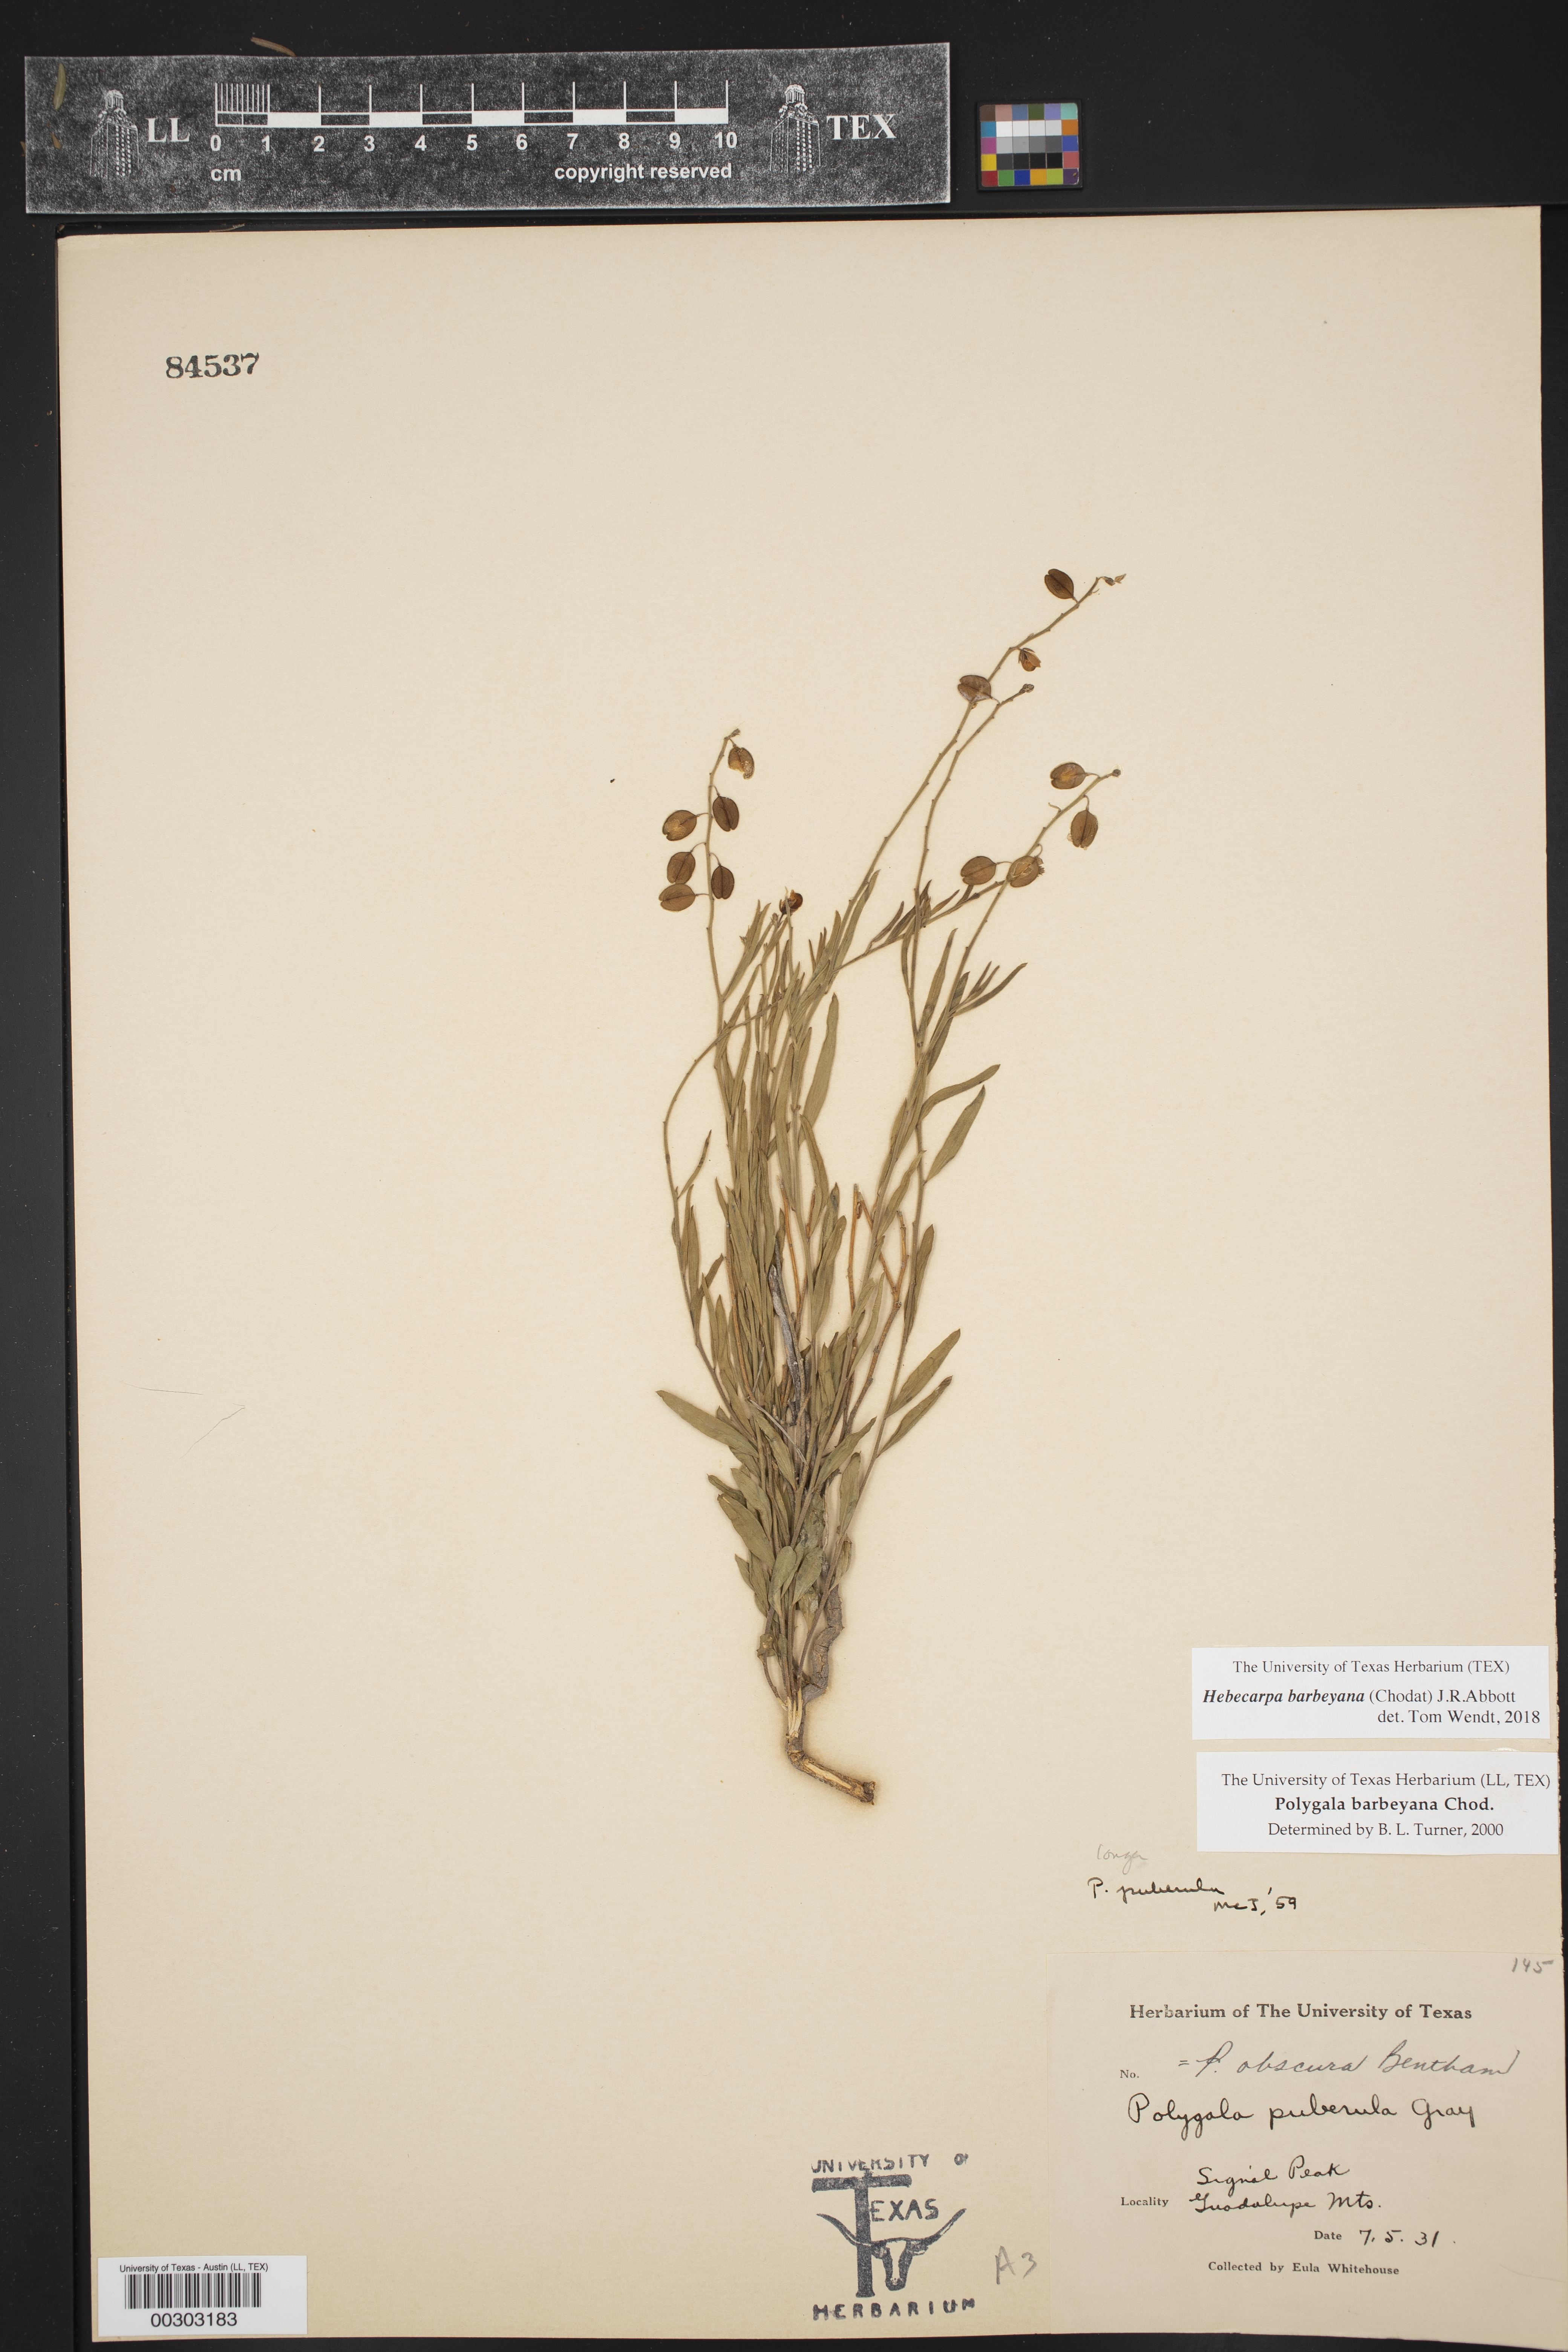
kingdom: Plantae
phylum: Tracheophyta
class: Magnoliopsida
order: Fabales
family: Polygalaceae
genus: Hebecarpa
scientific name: Hebecarpa barbeyana
